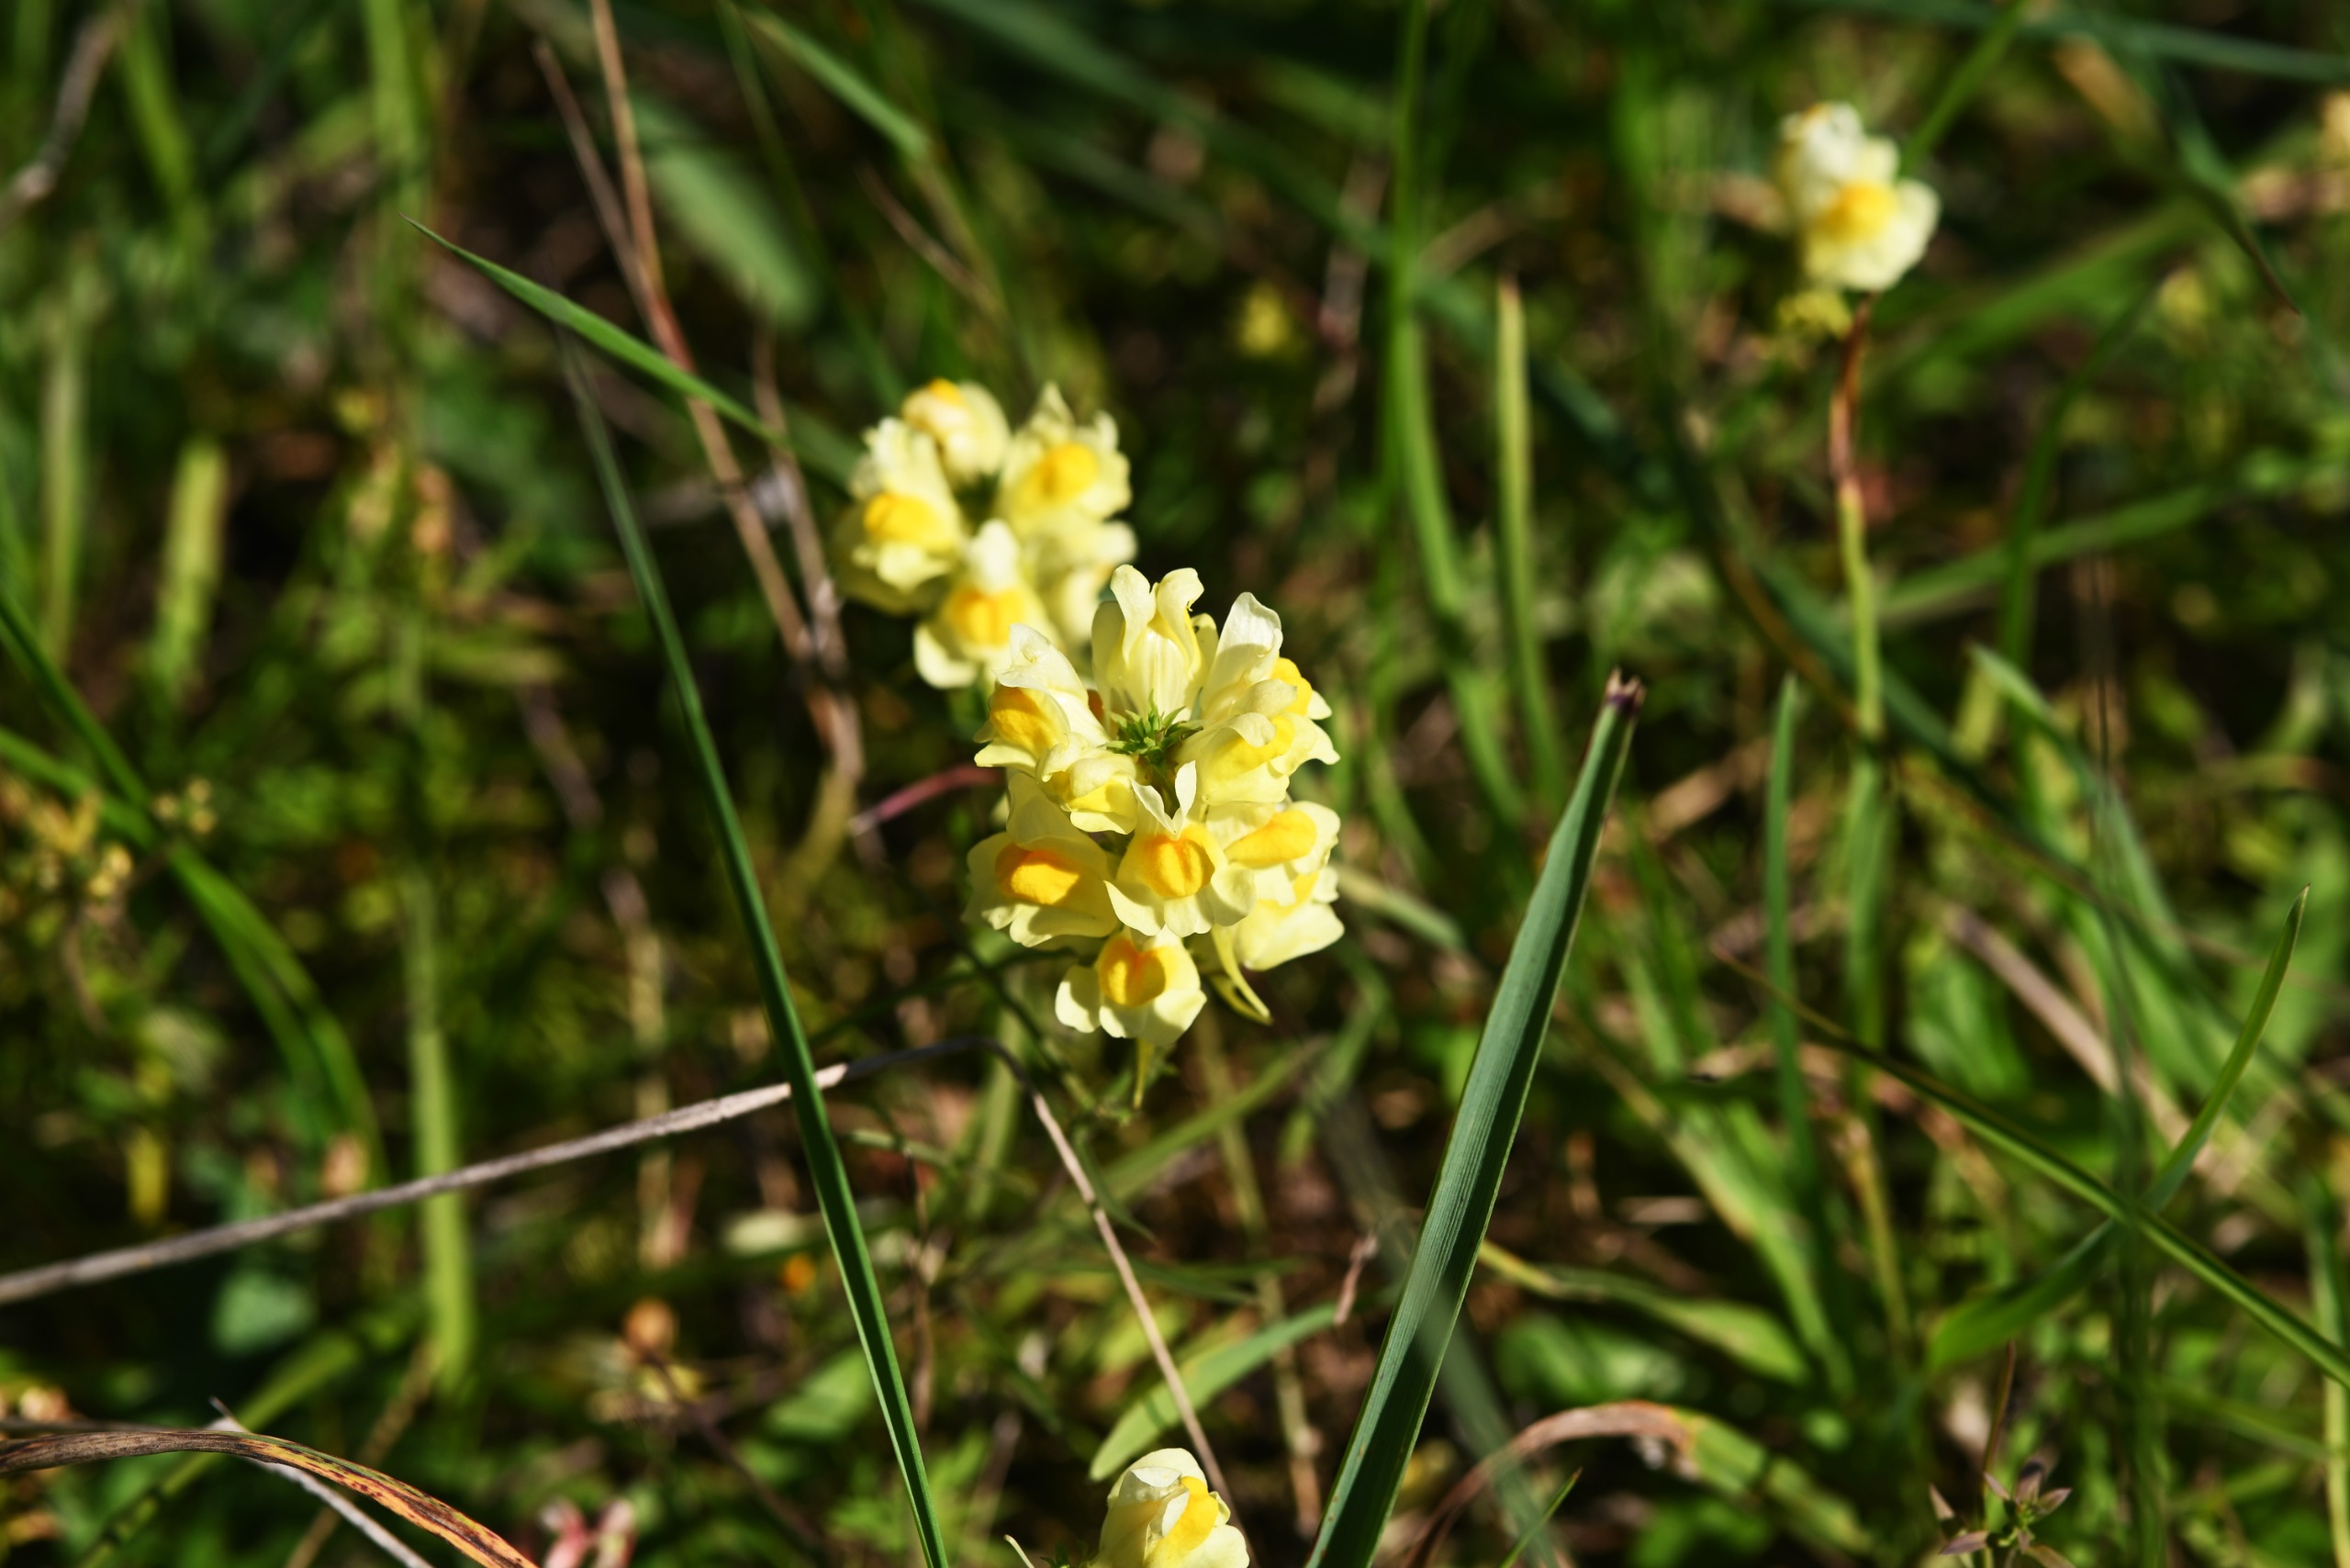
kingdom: Plantae
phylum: Tracheophyta
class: Magnoliopsida
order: Lamiales
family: Plantaginaceae
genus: Linaria
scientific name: Linaria vulgaris
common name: Almindelig torskemund
